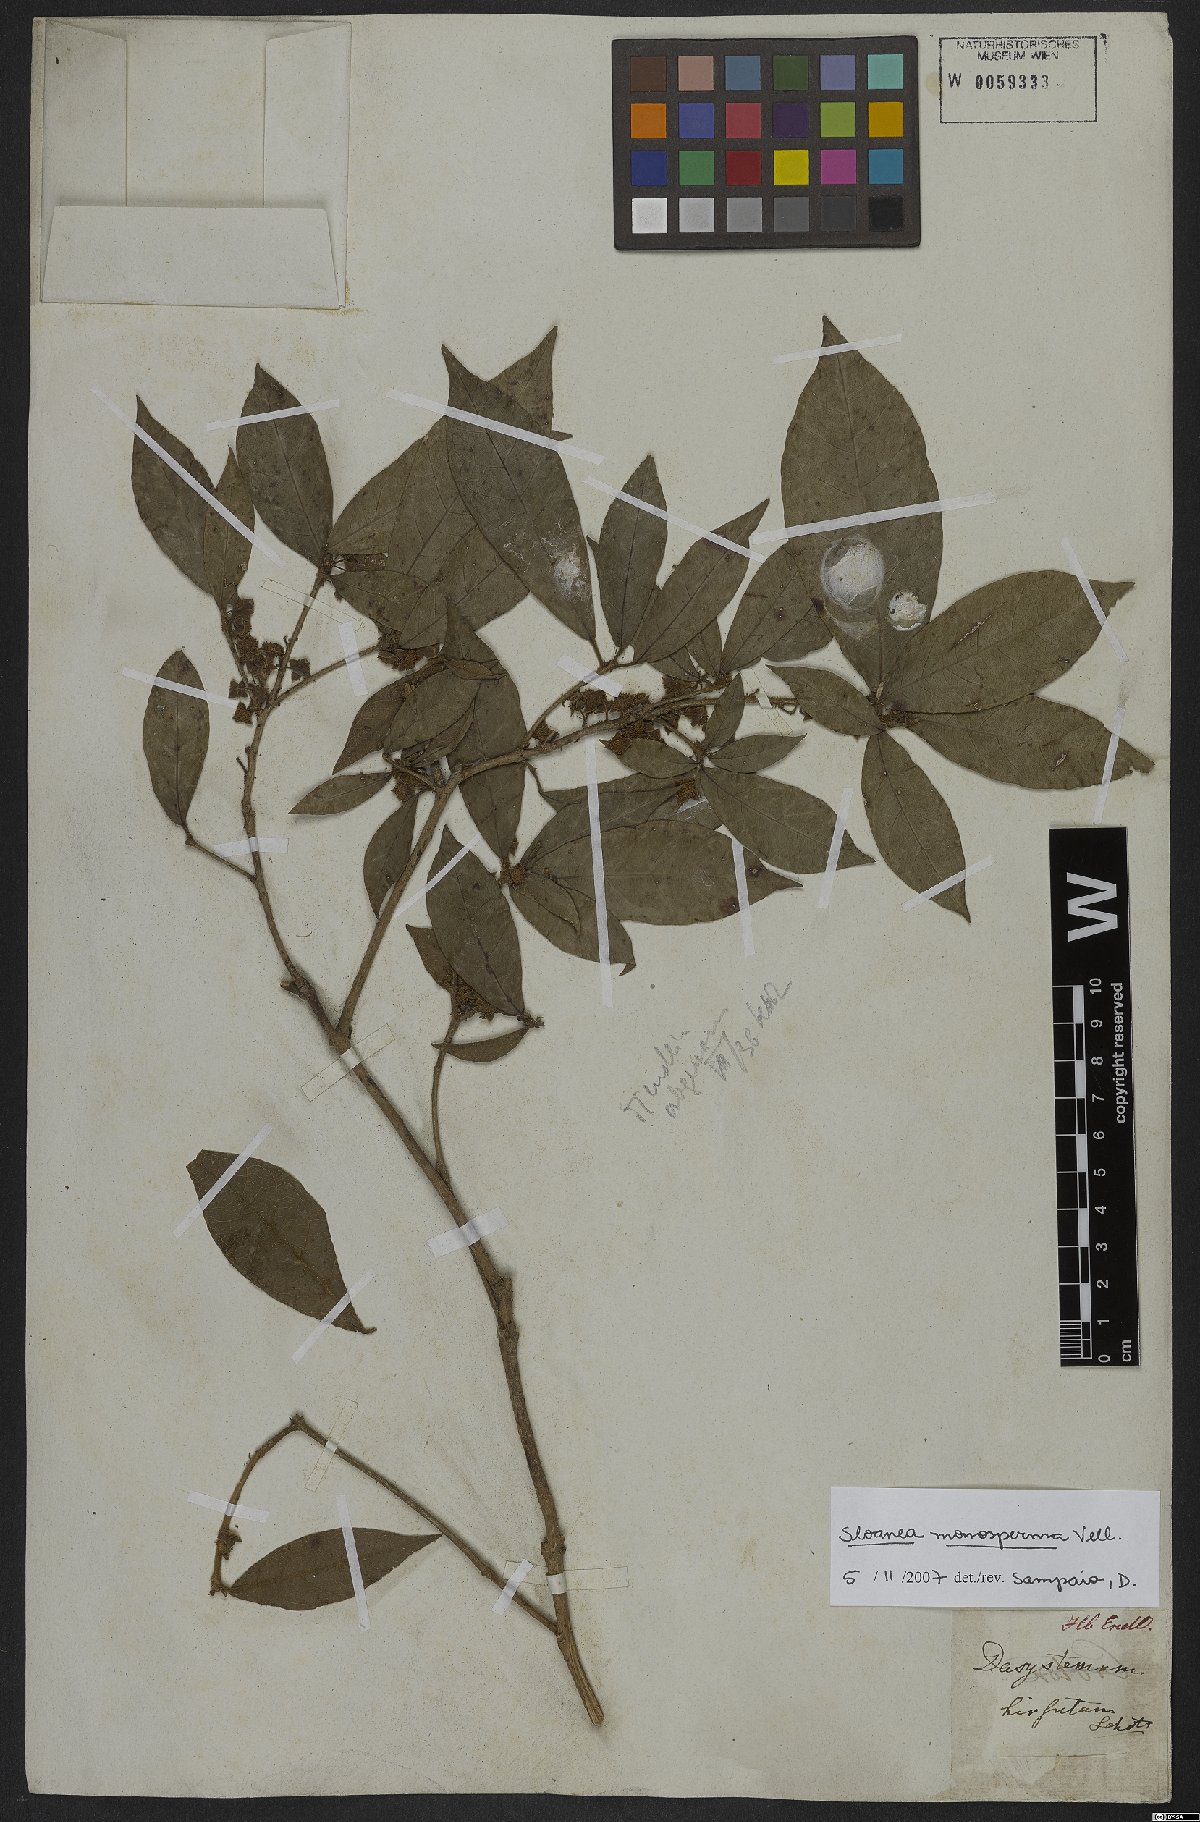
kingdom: Plantae
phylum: Tracheophyta
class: Magnoliopsida
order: Oxalidales
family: Elaeocarpaceae
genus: Sloanea
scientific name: Sloanea hirsuta
